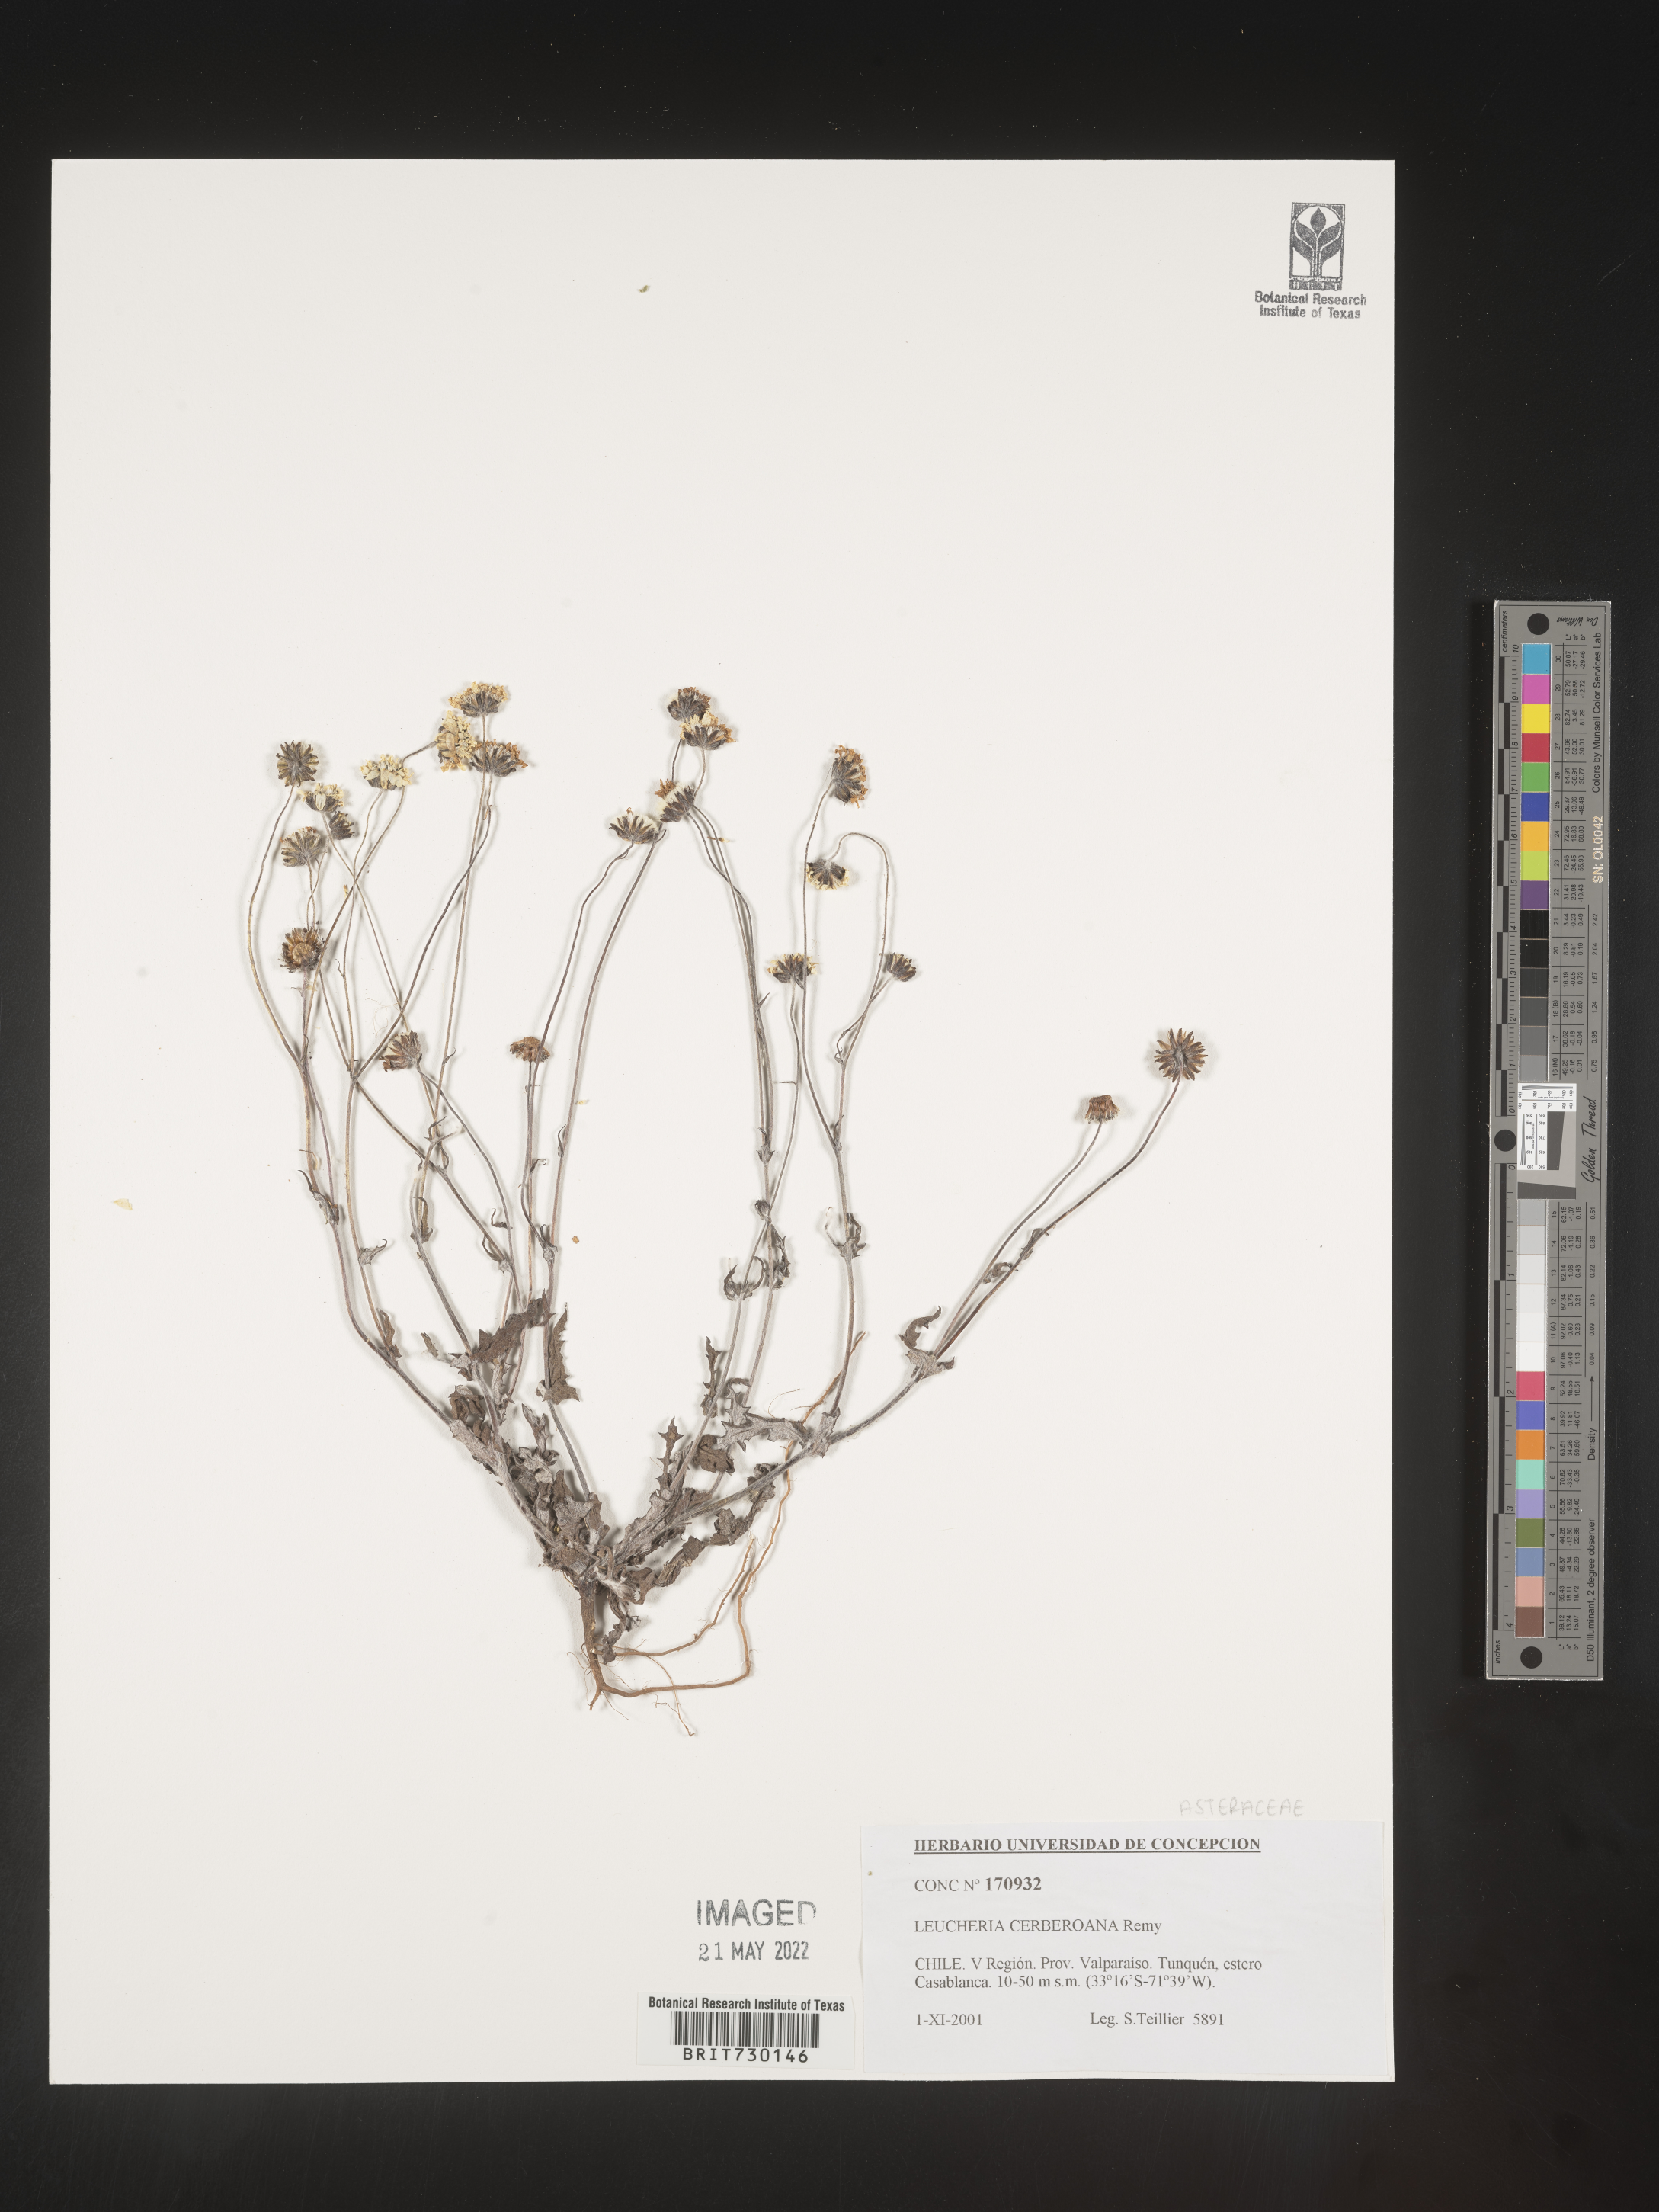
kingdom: Plantae
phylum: Tracheophyta
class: Magnoliopsida
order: Asterales
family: Asteraceae
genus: Leucheria
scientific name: Leucheria
